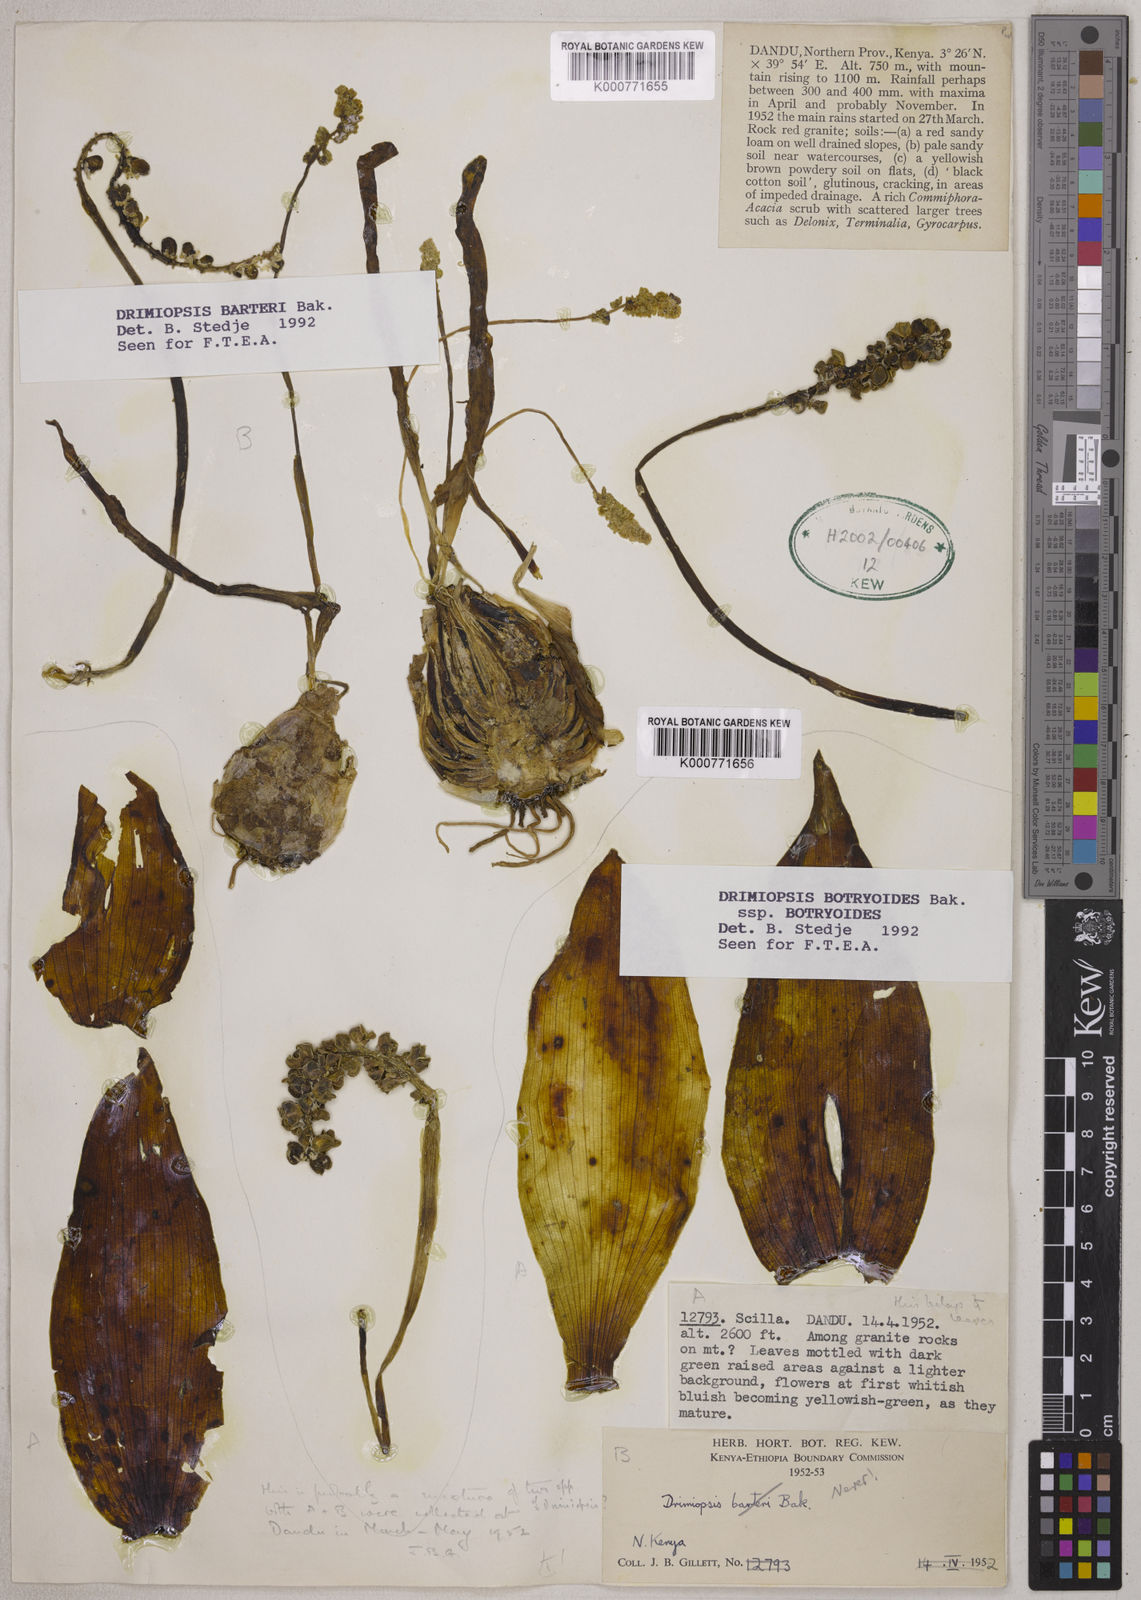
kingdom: Plantae
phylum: Tracheophyta
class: Liliopsida
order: Asparagales
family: Asparagaceae
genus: Drimiopsis
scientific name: Drimiopsis barteri
